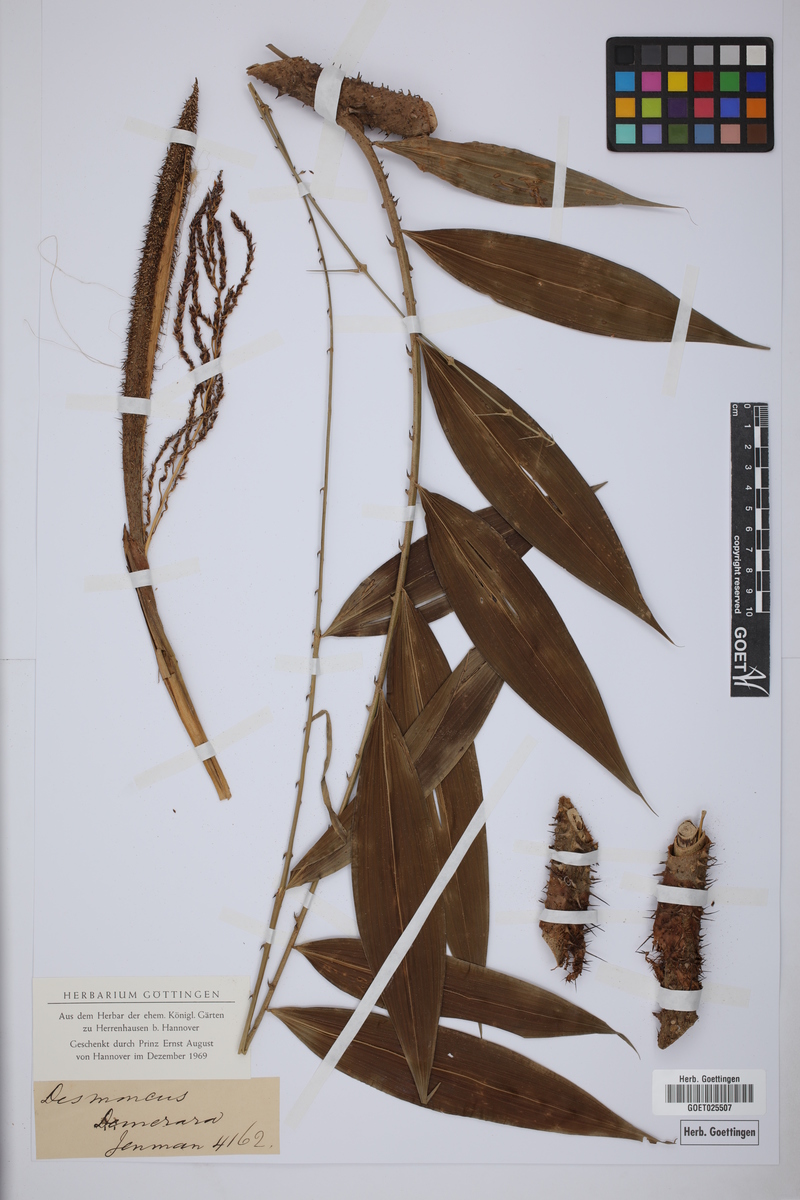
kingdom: Plantae
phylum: Tracheophyta
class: Liliopsida
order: Arecales
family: Arecaceae
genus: Desmoncus
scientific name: Desmoncus
